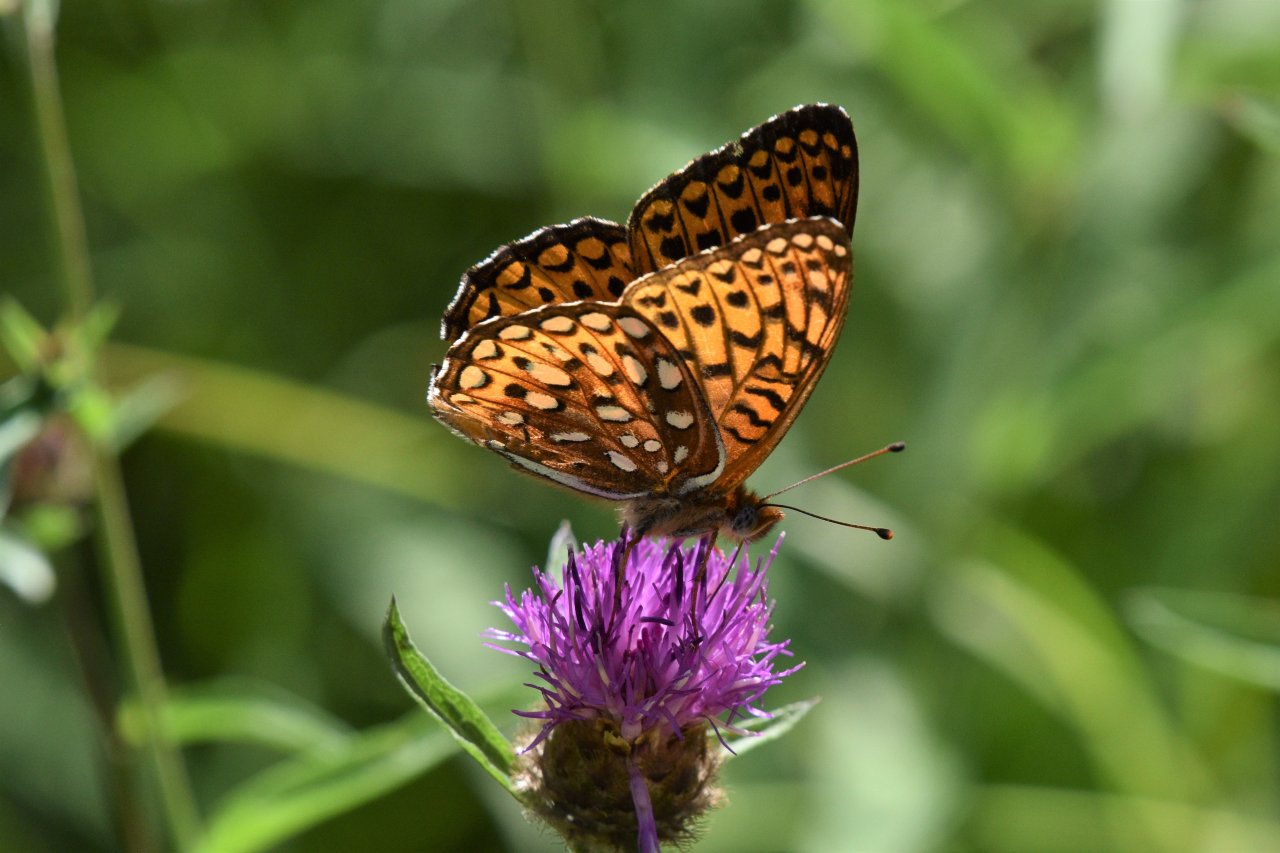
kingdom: Animalia
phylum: Arthropoda
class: Insecta
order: Lepidoptera
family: Nymphalidae
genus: Speyeria
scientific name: Speyeria atlantis
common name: Atlantis Fritillary
